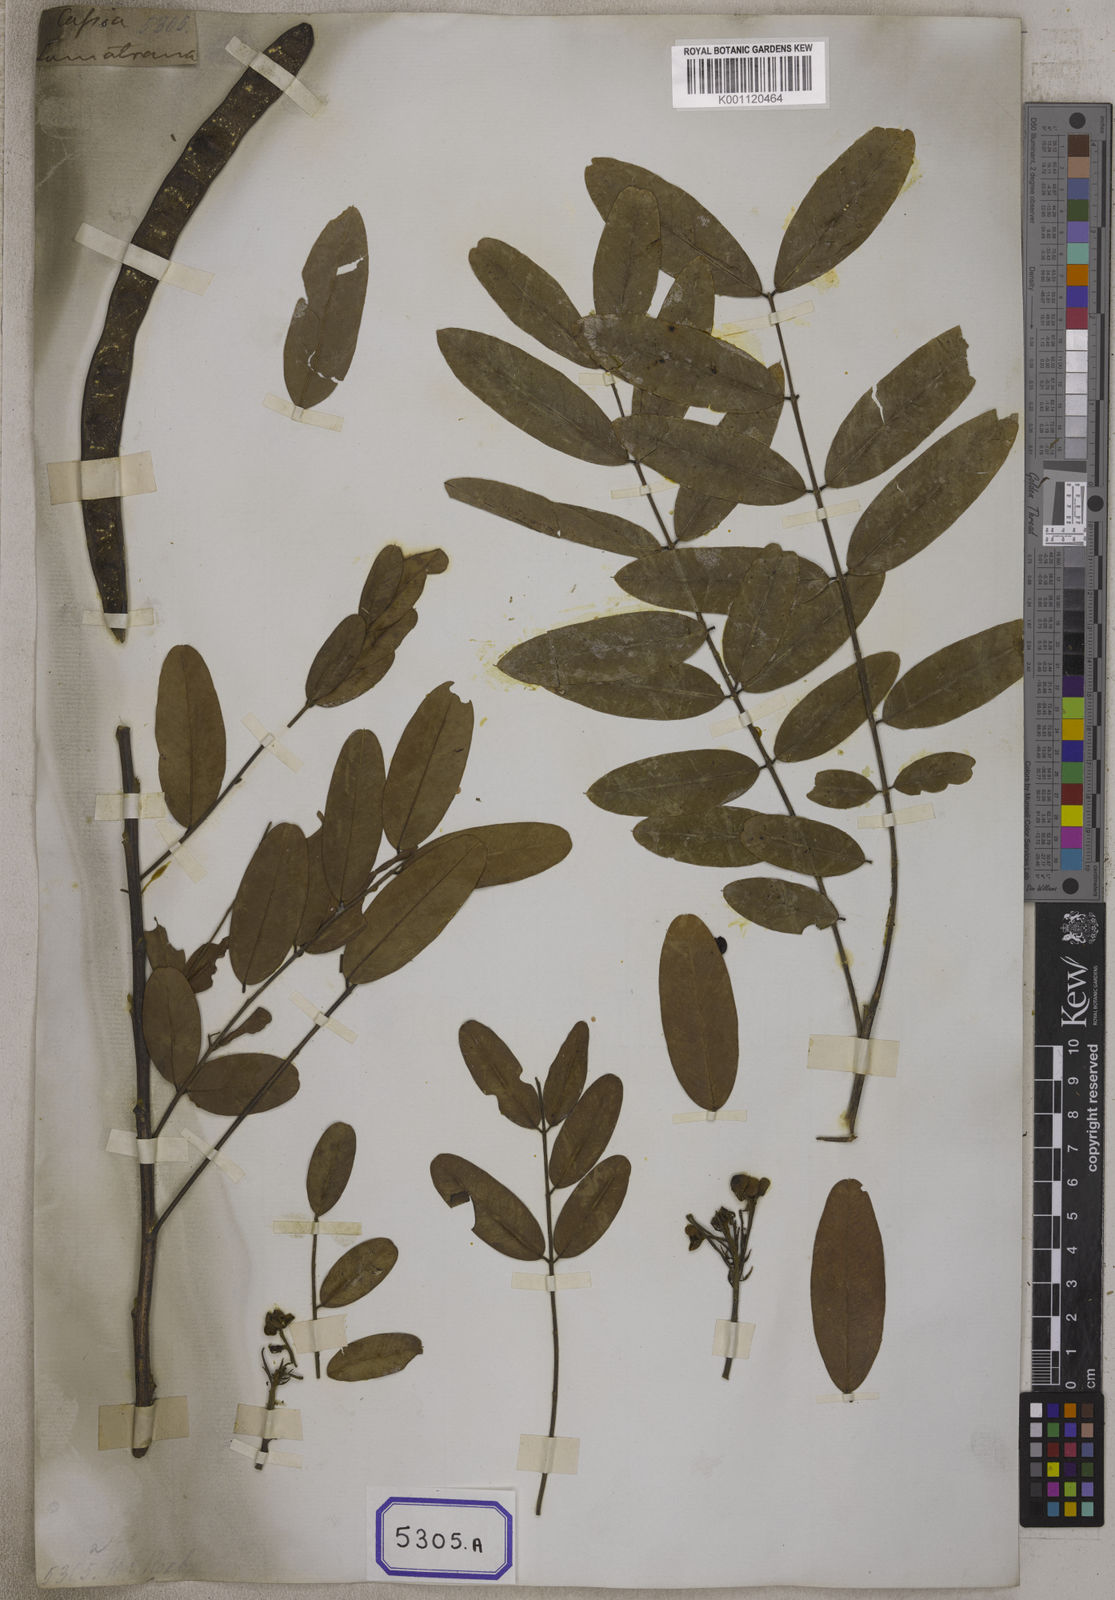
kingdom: Plantae
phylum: Tracheophyta
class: Magnoliopsida
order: Fabales
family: Fabaceae
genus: Cassia
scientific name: Cassia
